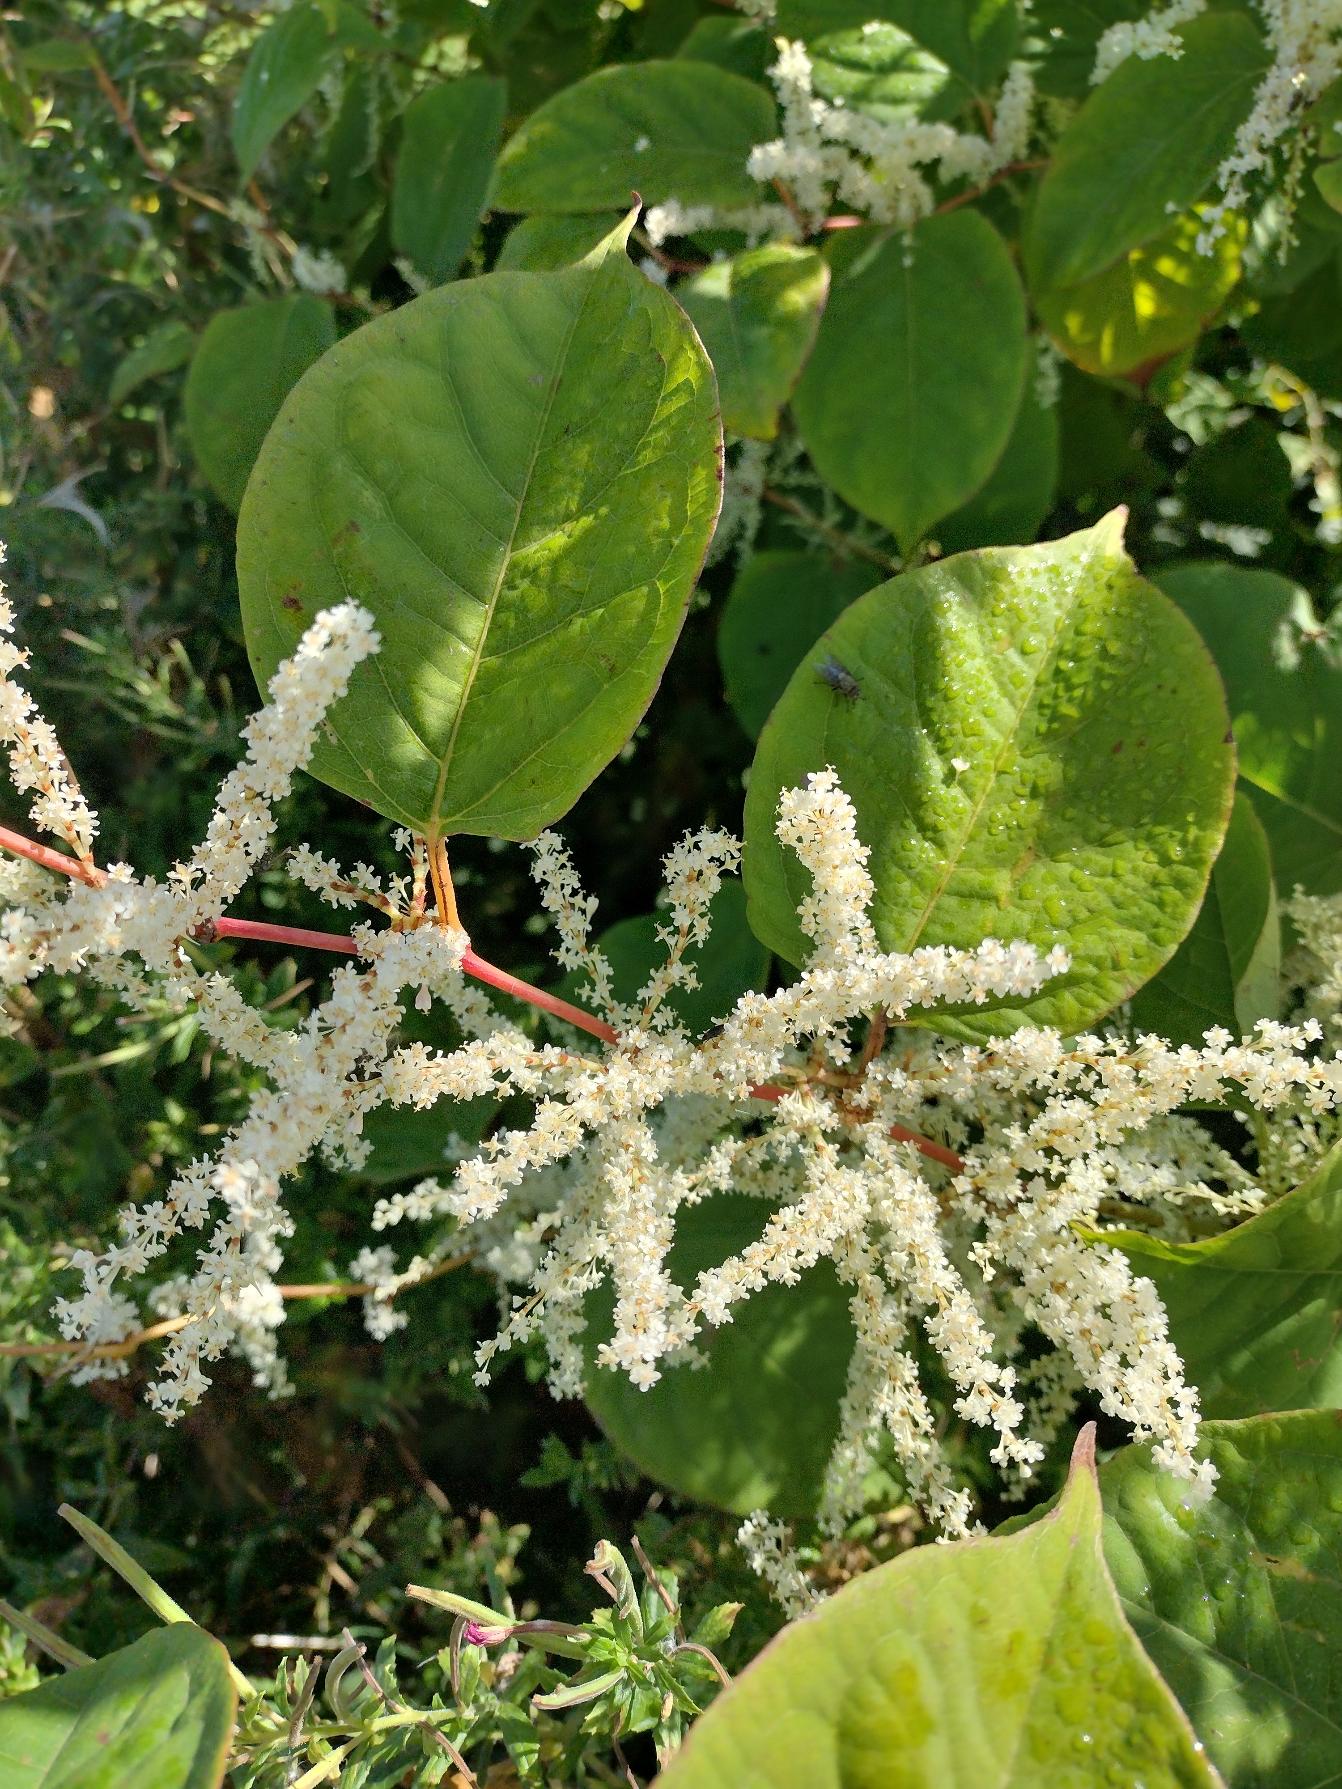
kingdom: Plantae
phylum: Tracheophyta
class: Magnoliopsida
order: Caryophyllales
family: Polygonaceae
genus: Reynoutria
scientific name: Reynoutria japonica
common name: Japan-pileurt
